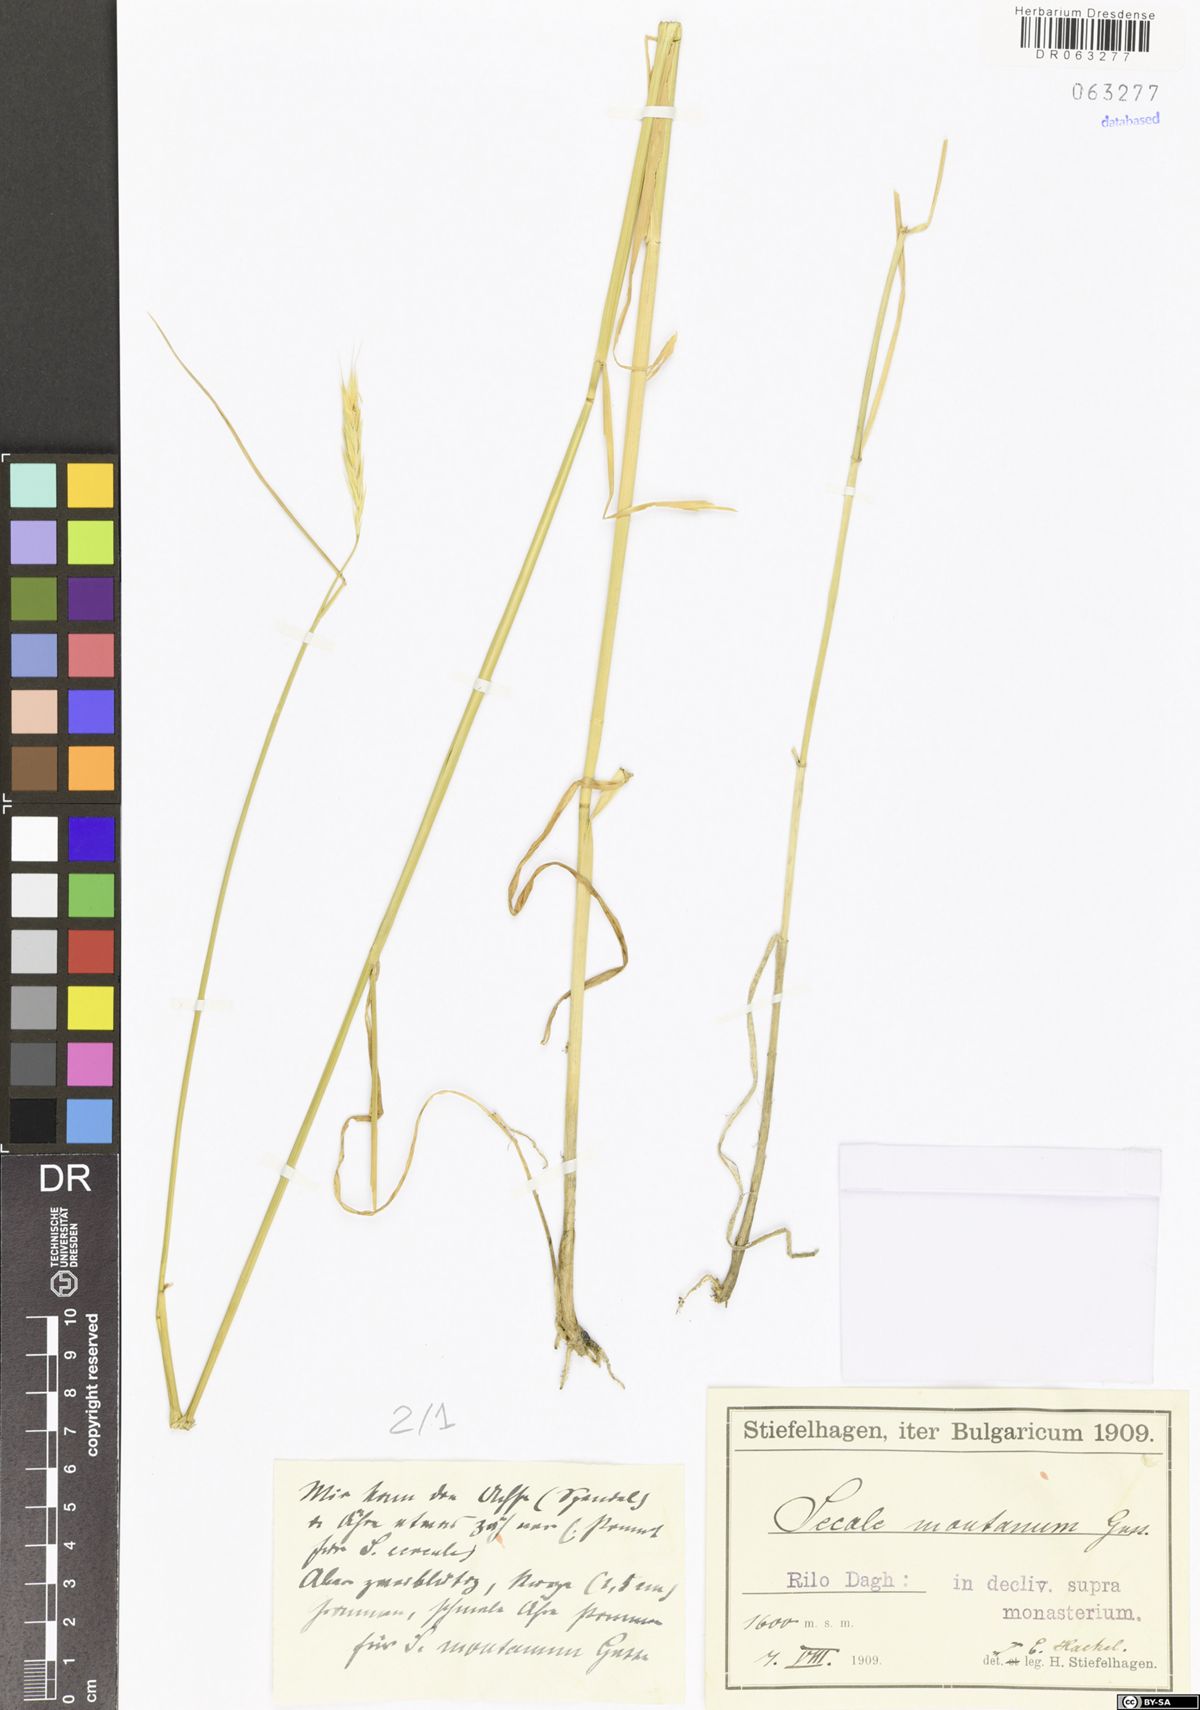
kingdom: Plantae
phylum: Tracheophyta
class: Liliopsida
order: Poales
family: Poaceae
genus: Secale
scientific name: Secale strictum
